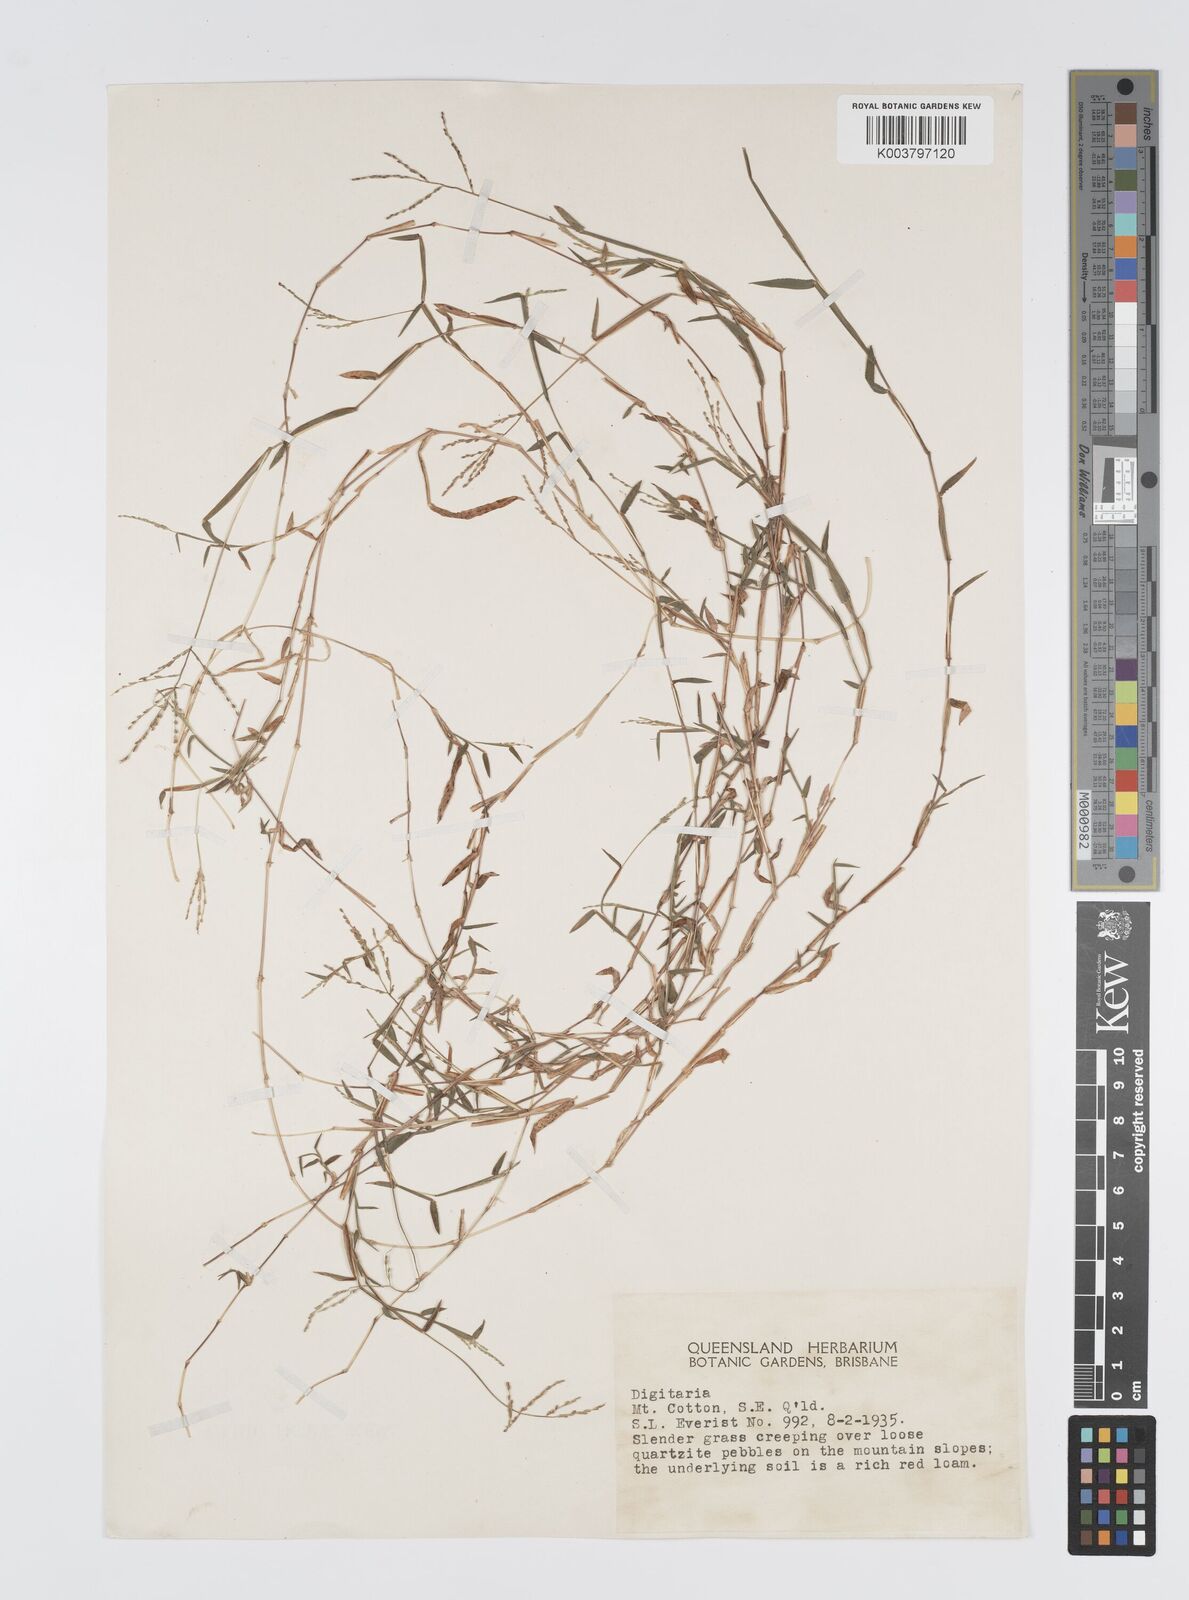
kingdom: Plantae
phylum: Tracheophyta
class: Liliopsida
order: Poales
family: Poaceae
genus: Digitaria
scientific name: Digitaria diffusa
